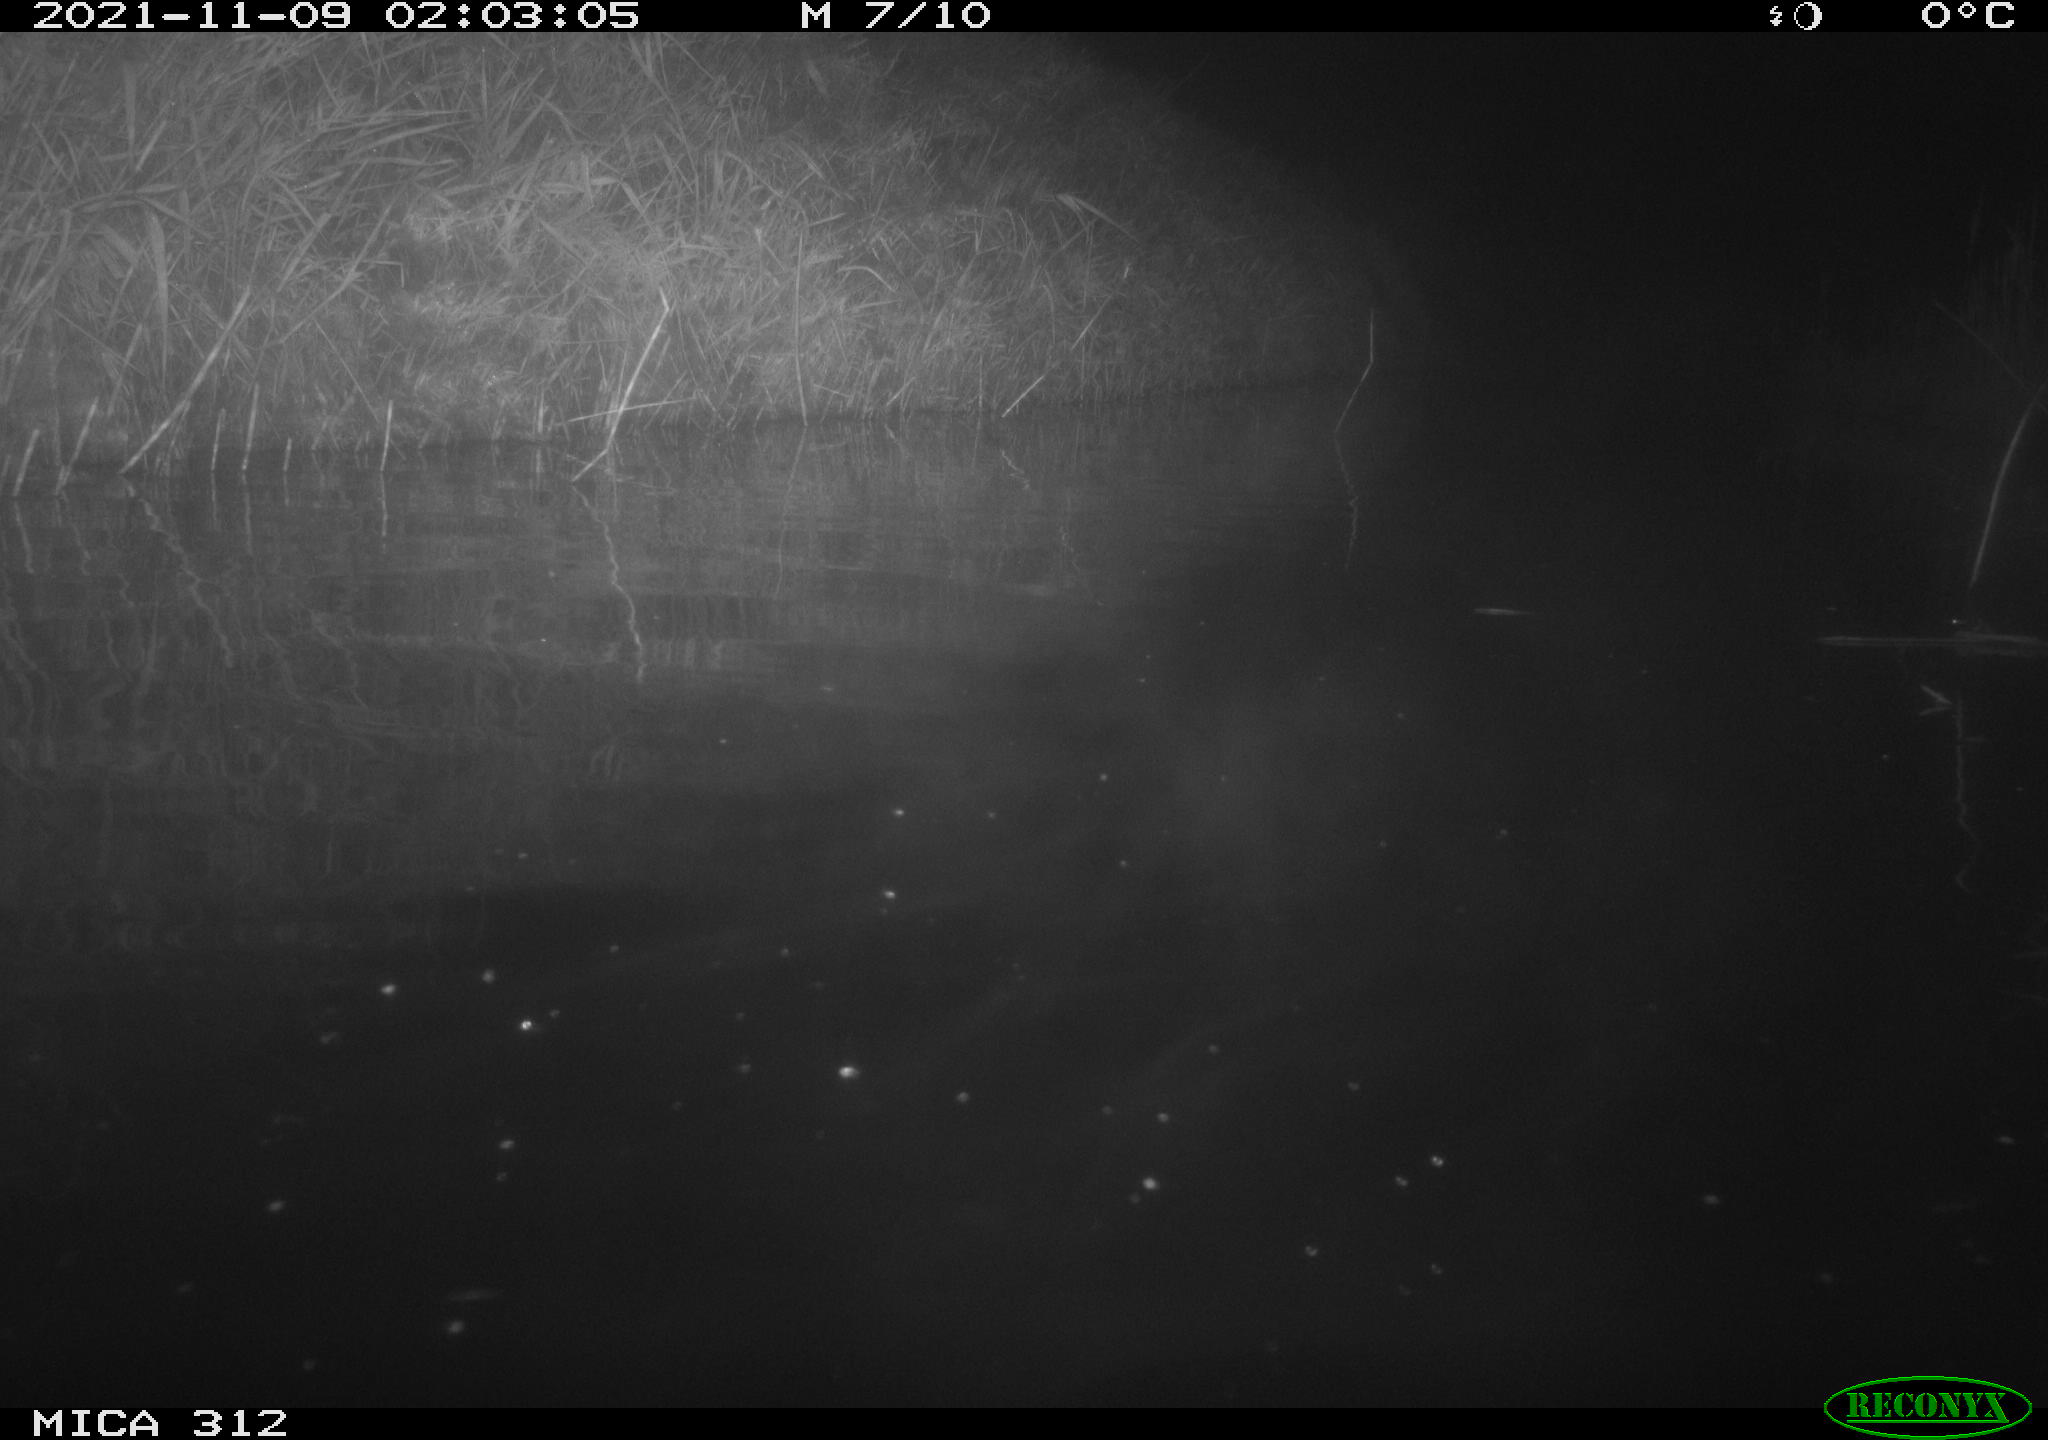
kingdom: Animalia
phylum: Chordata
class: Mammalia
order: Rodentia
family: Cricetidae
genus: Ondatra
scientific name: Ondatra zibethicus
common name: Muskrat
